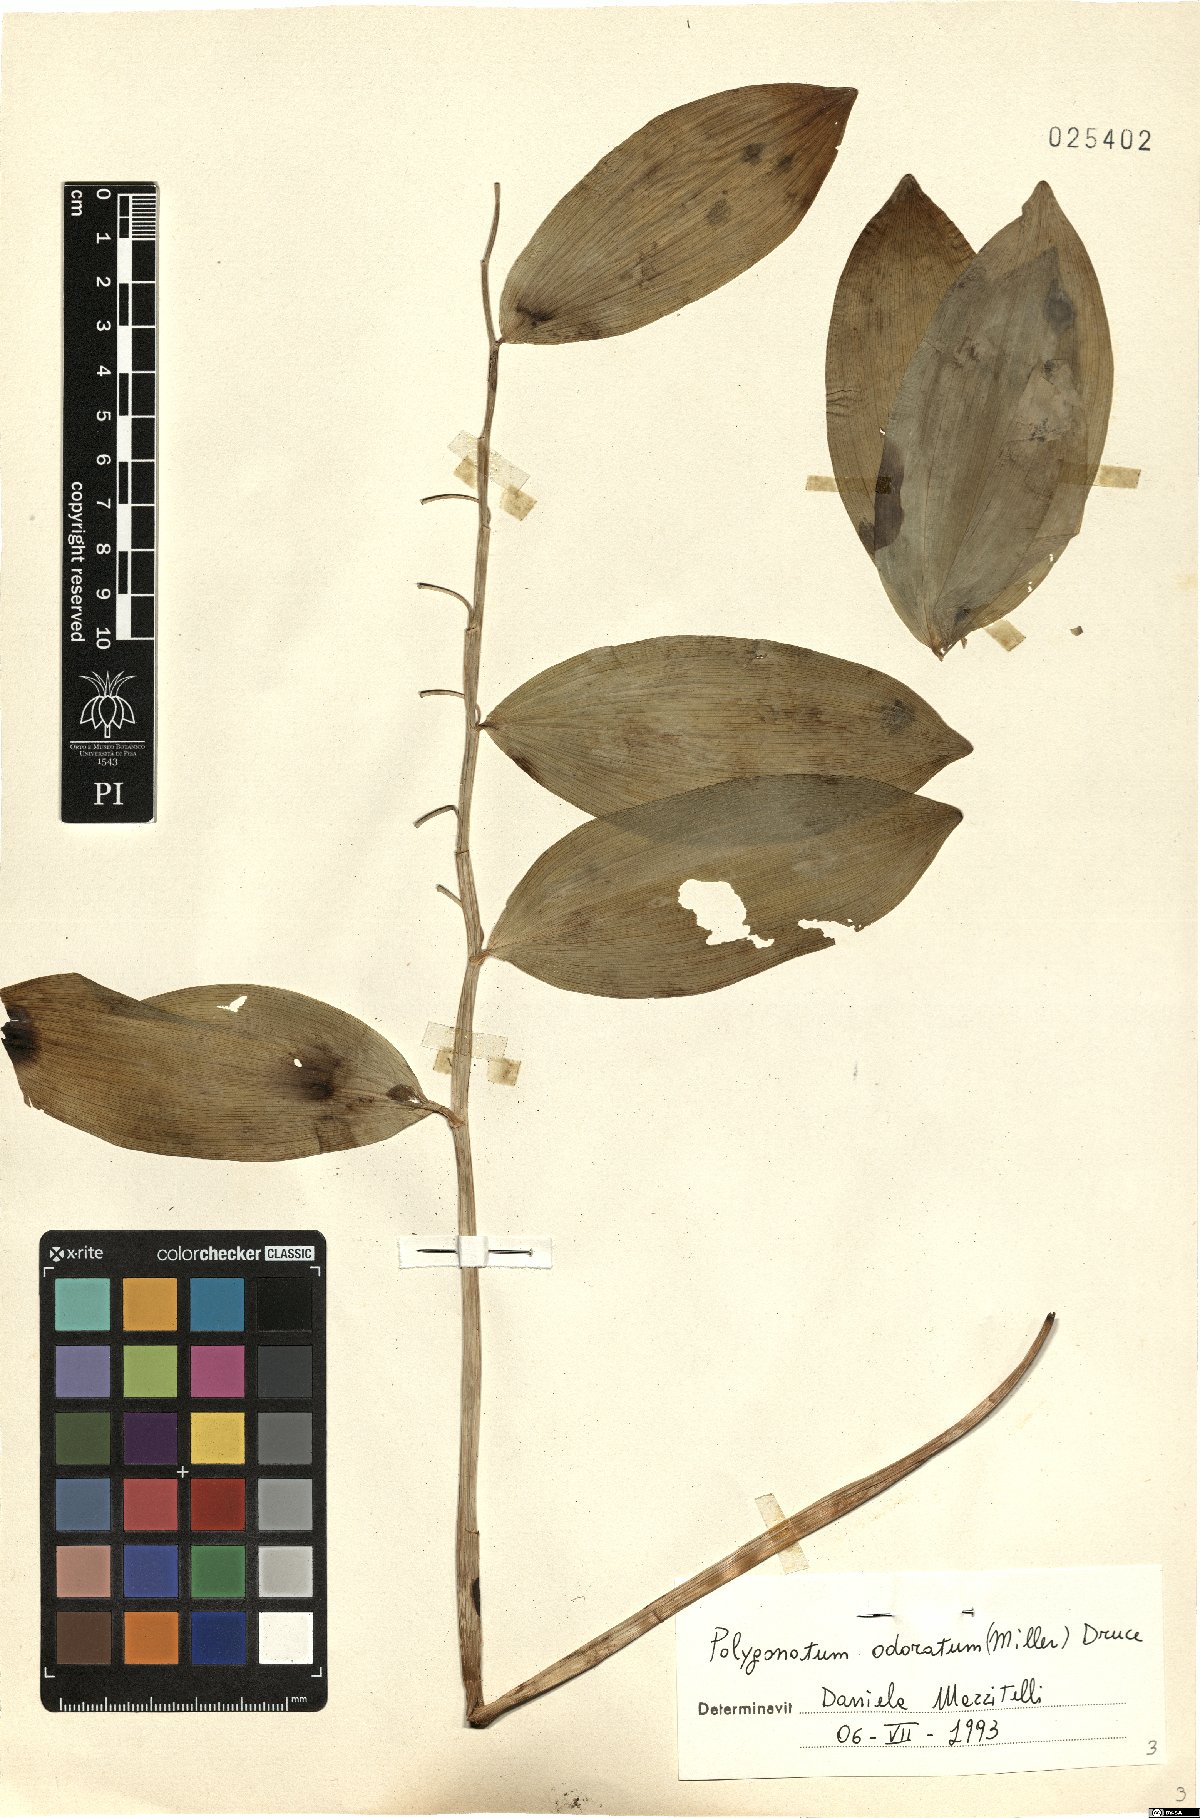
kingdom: Plantae
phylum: Tracheophyta
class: Liliopsida
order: Asparagales
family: Asparagaceae
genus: Polygonatum
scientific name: Polygonatum odoratum
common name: Angular solomon's-seal
